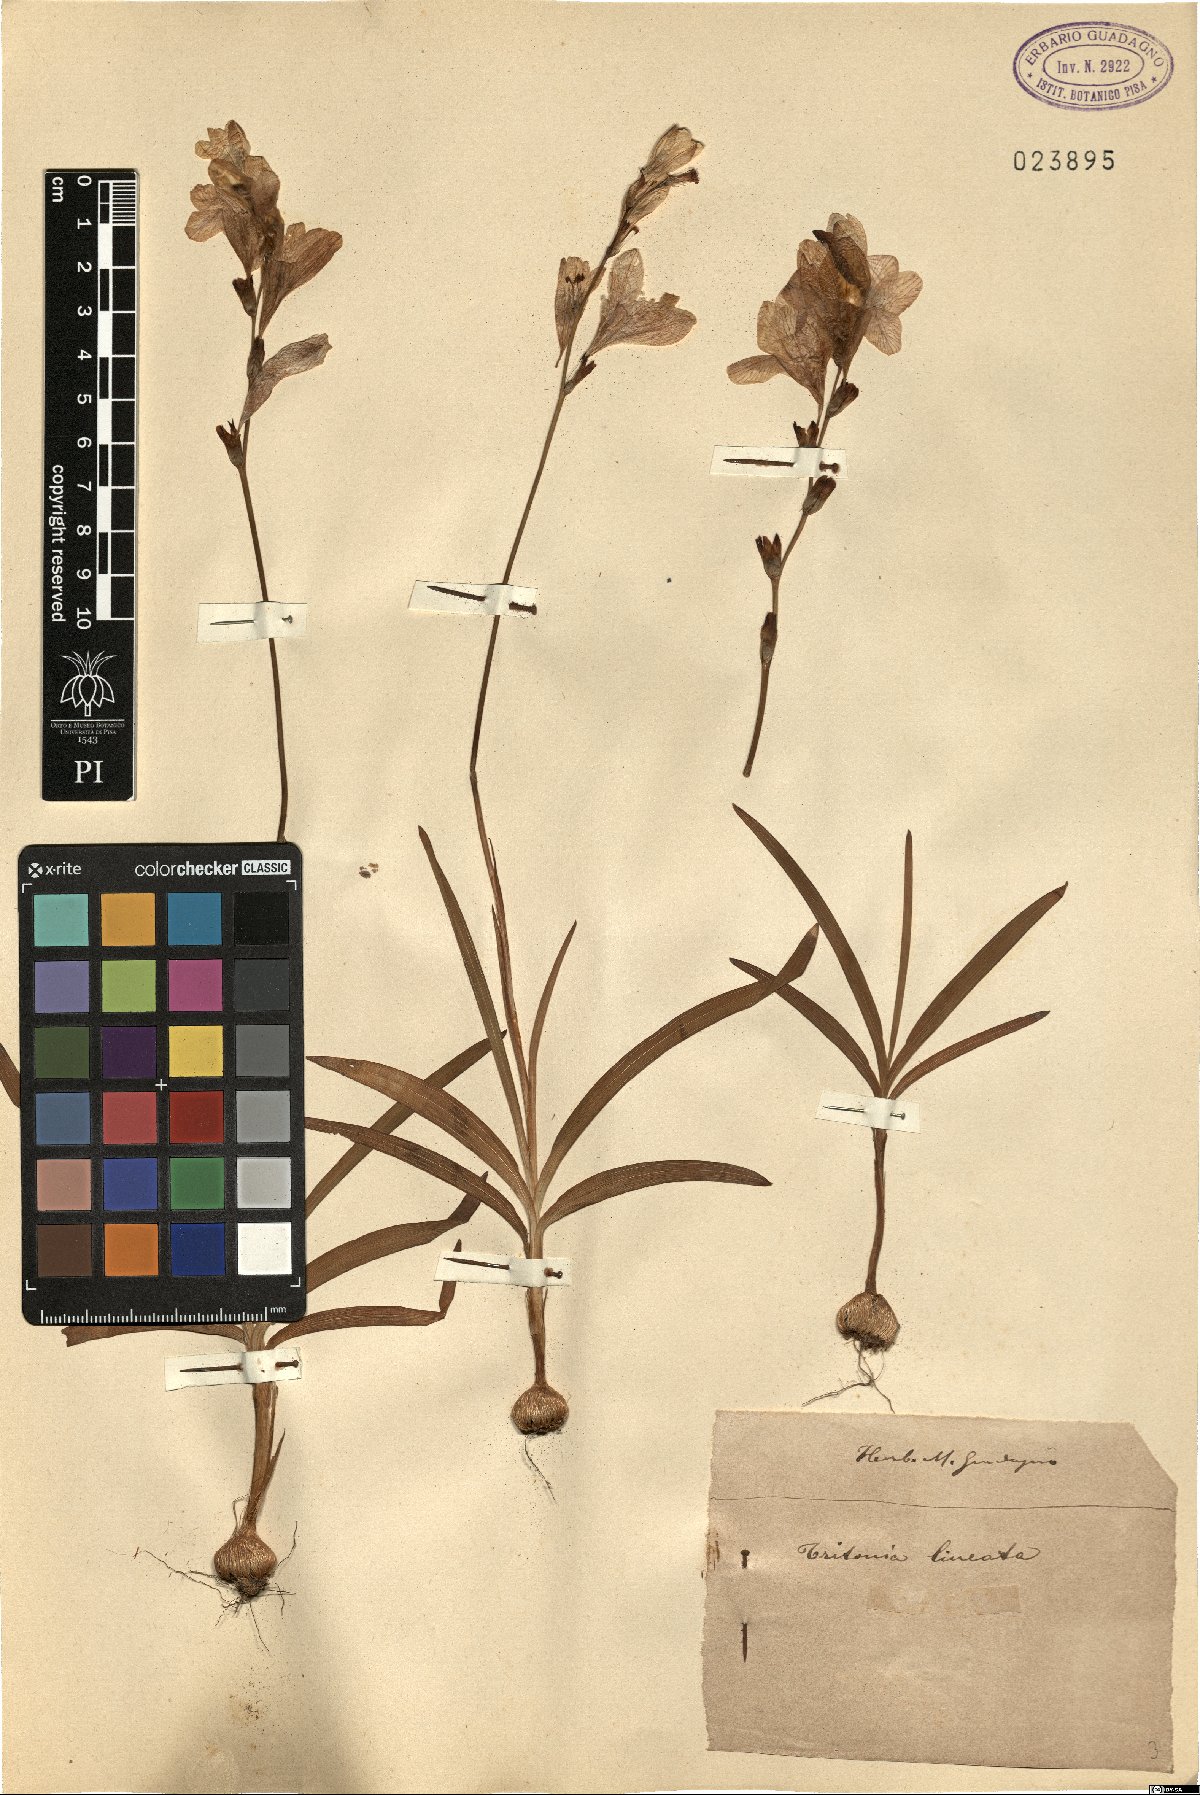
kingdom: Plantae
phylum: Tracheophyta
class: Liliopsida
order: Asparagales
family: Iridaceae
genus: Tritonia
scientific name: Tritonia gladiolaris
